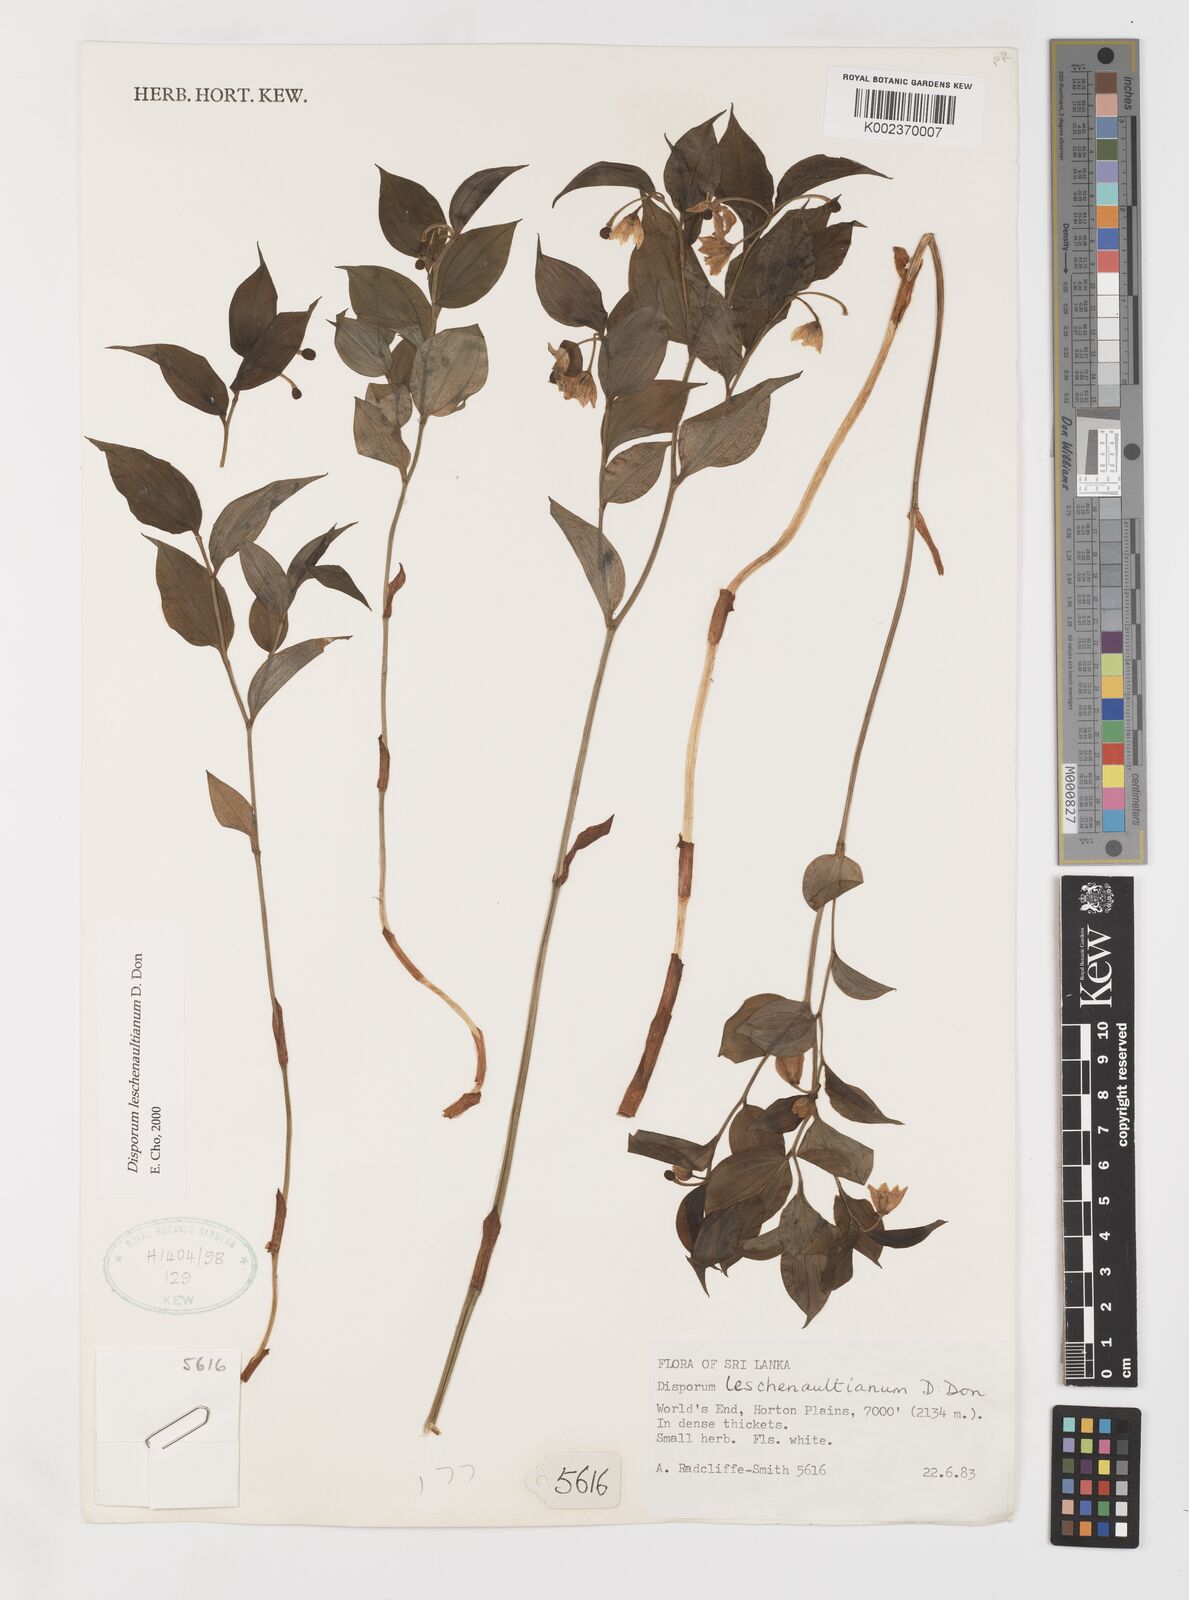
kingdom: Plantae
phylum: Tracheophyta
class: Liliopsida
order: Liliales
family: Colchicaceae
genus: Disporum
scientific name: Disporum cantoniense
